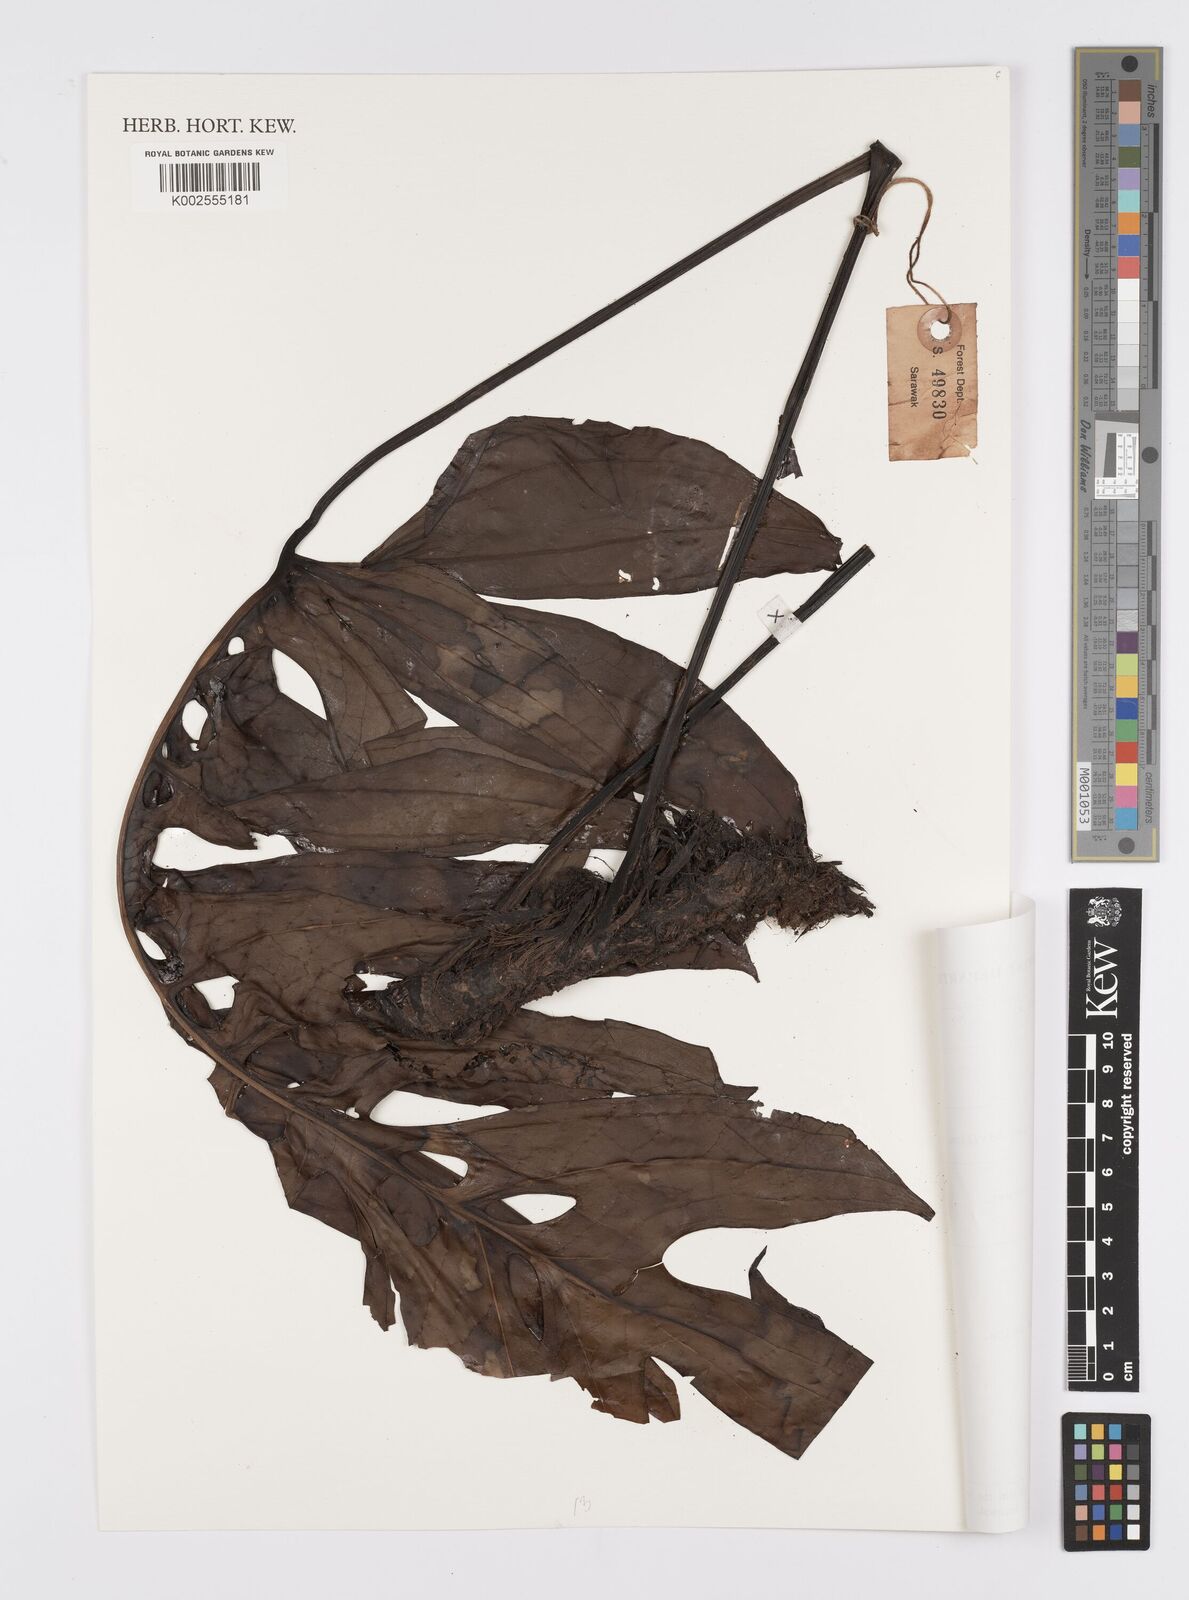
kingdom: Plantae
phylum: Tracheophyta
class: Liliopsida
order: Alismatales
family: Araceae
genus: Amydrium
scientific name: Amydrium
